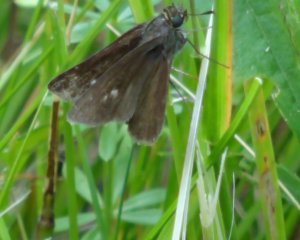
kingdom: Animalia
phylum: Arthropoda
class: Insecta
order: Lepidoptera
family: Hesperiidae
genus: Polites
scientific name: Polites egeremet
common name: Northern Broken-Dash
